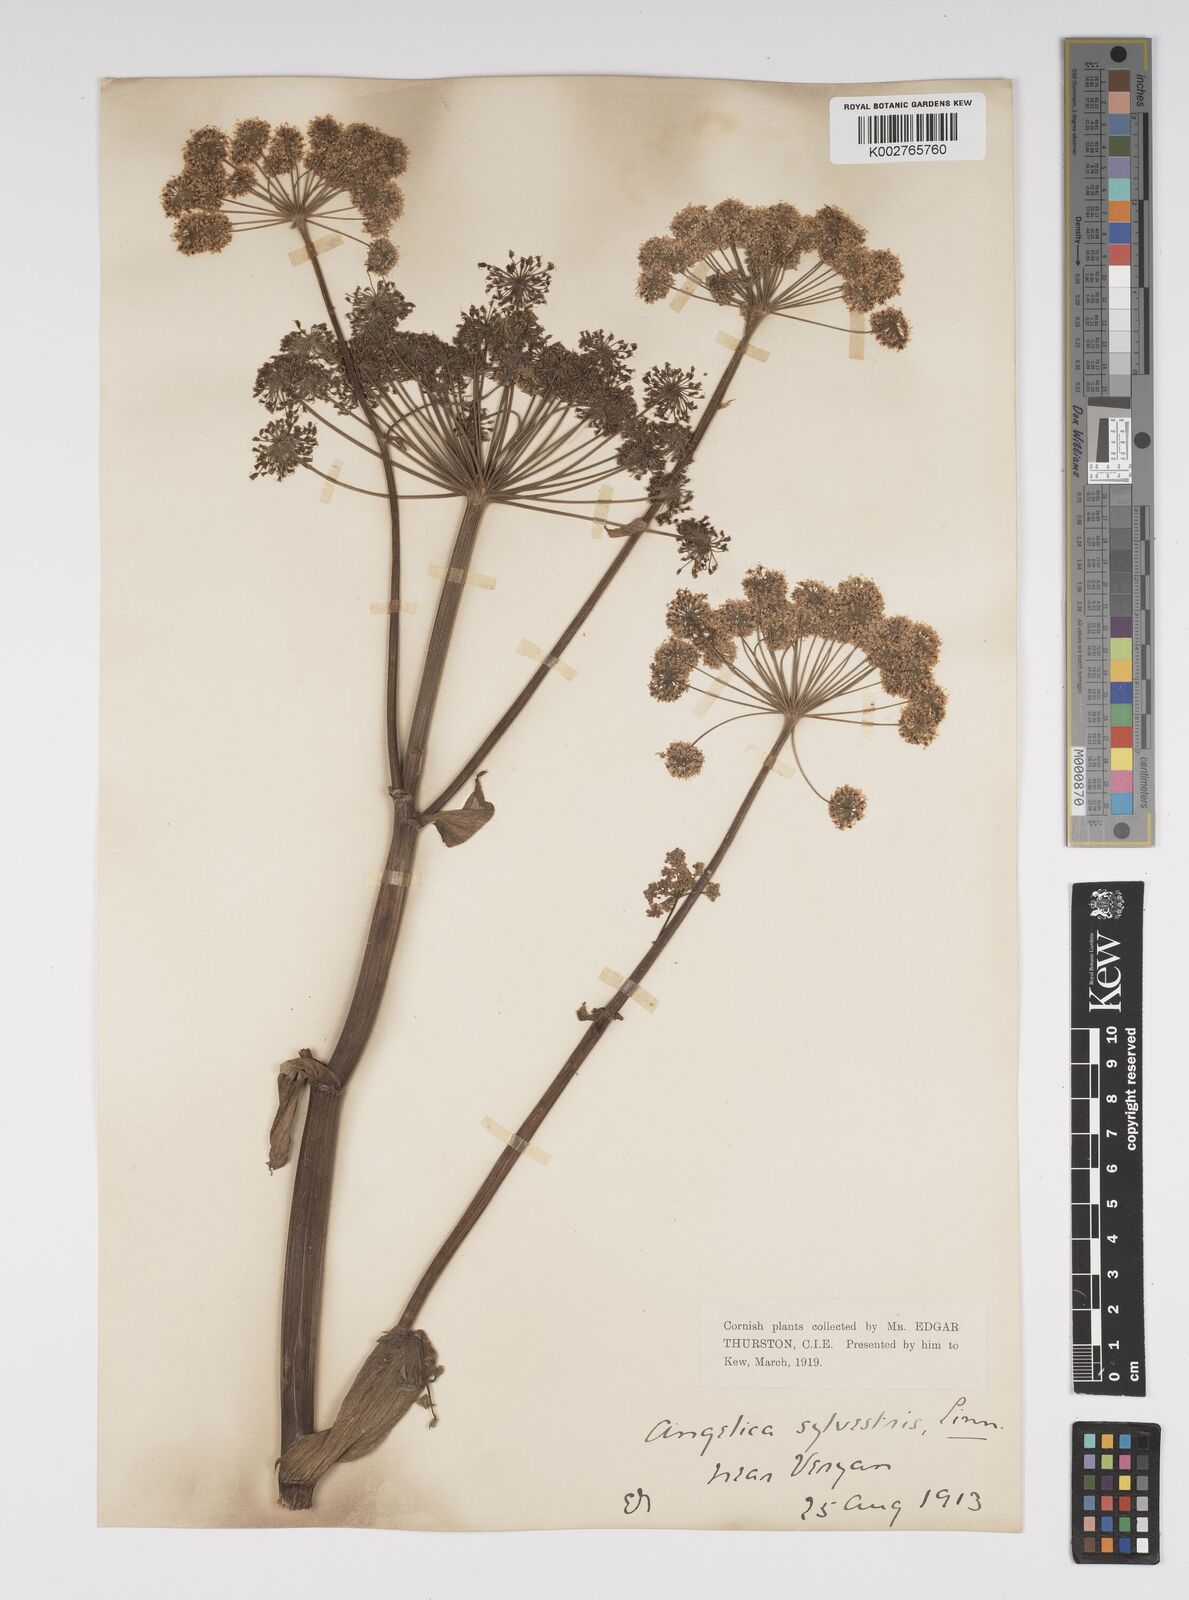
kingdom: Plantae
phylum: Tracheophyta
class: Magnoliopsida
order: Apiales
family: Apiaceae
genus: Angelica
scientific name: Angelica sylvestris
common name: Wild angelica
